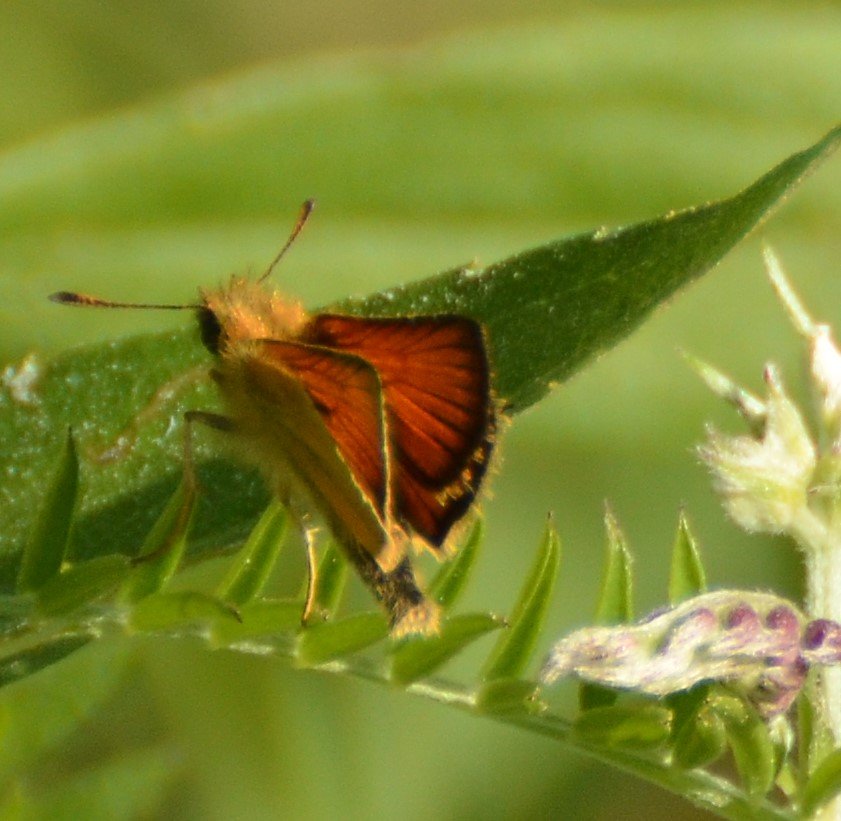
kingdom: Animalia
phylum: Arthropoda
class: Insecta
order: Lepidoptera
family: Hesperiidae
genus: Thymelicus
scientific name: Thymelicus lineola
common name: European Skipper
